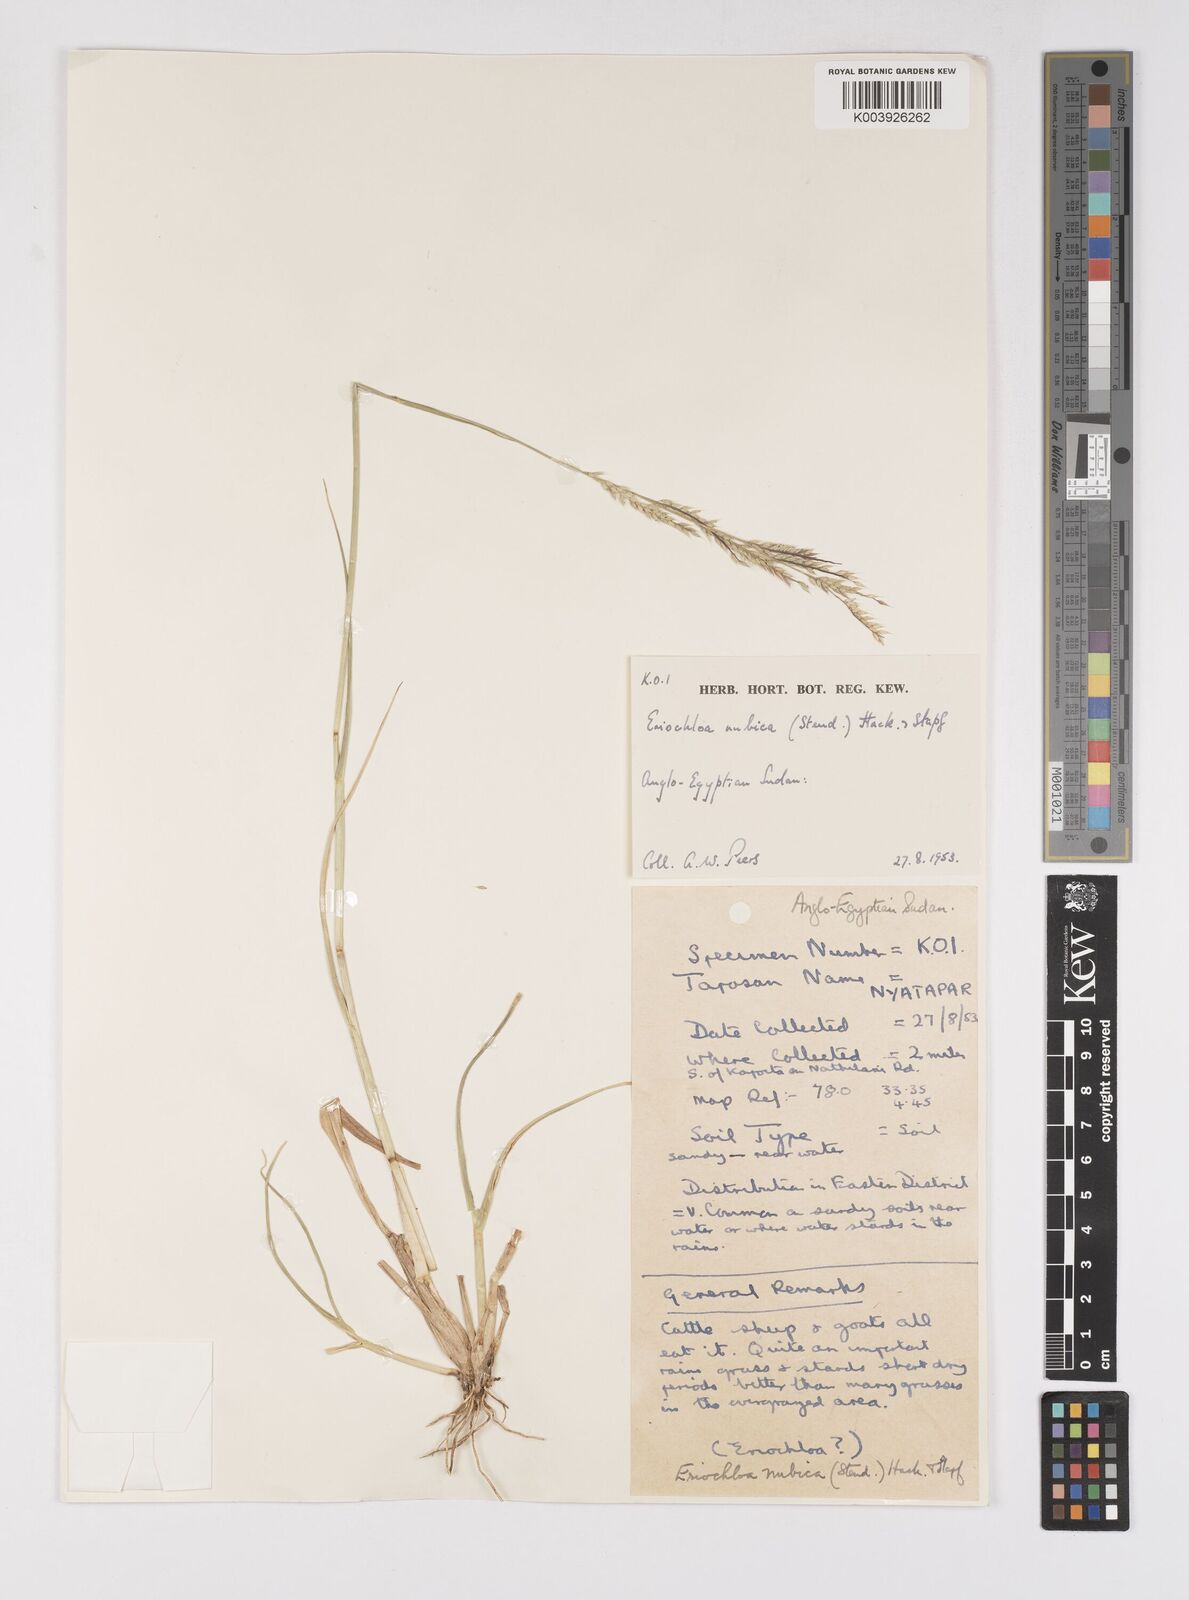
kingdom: Plantae
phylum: Tracheophyta
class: Liliopsida
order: Poales
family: Poaceae
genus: Eriochloa
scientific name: Eriochloa barbatus
